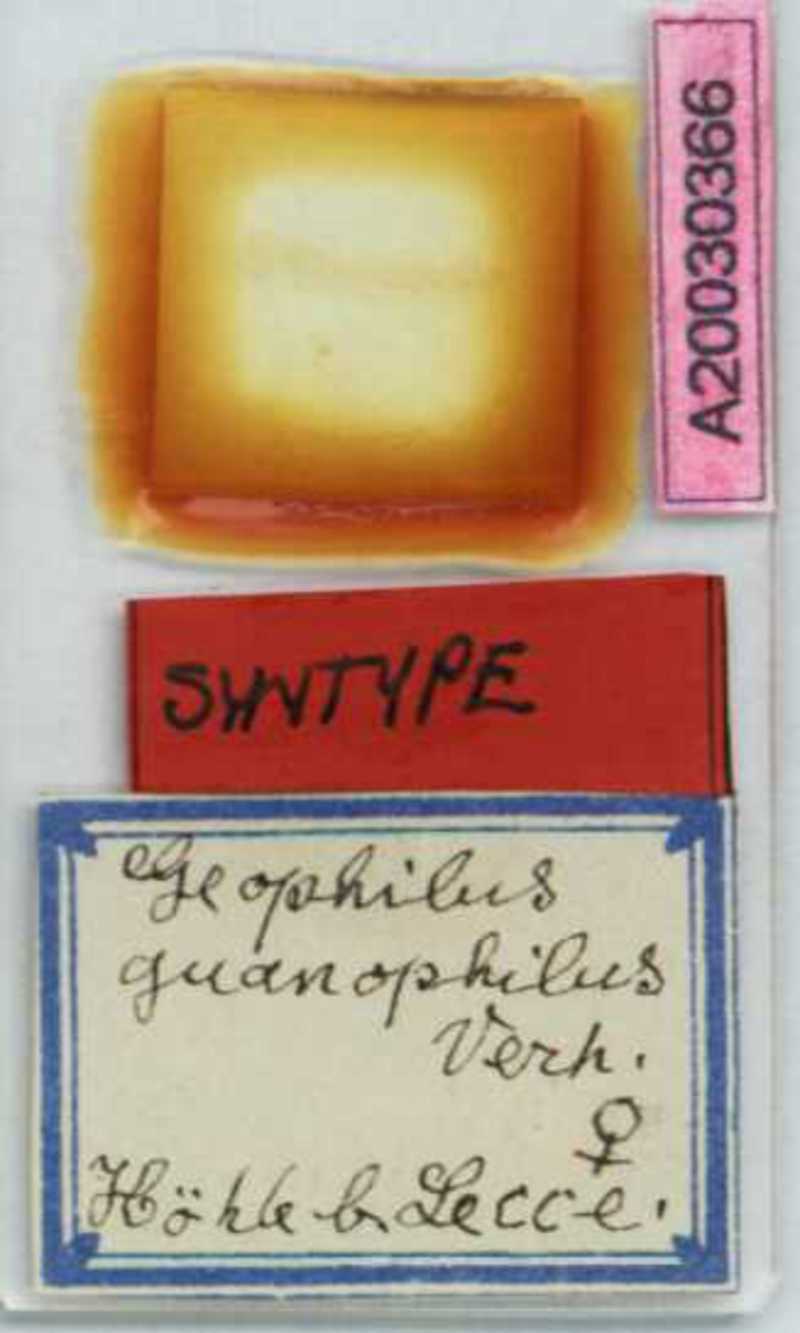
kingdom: Animalia
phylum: Arthropoda
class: Chilopoda
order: Geophilomorpha
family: Geophilidae
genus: Geophilus
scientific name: Geophilus guanophilus
